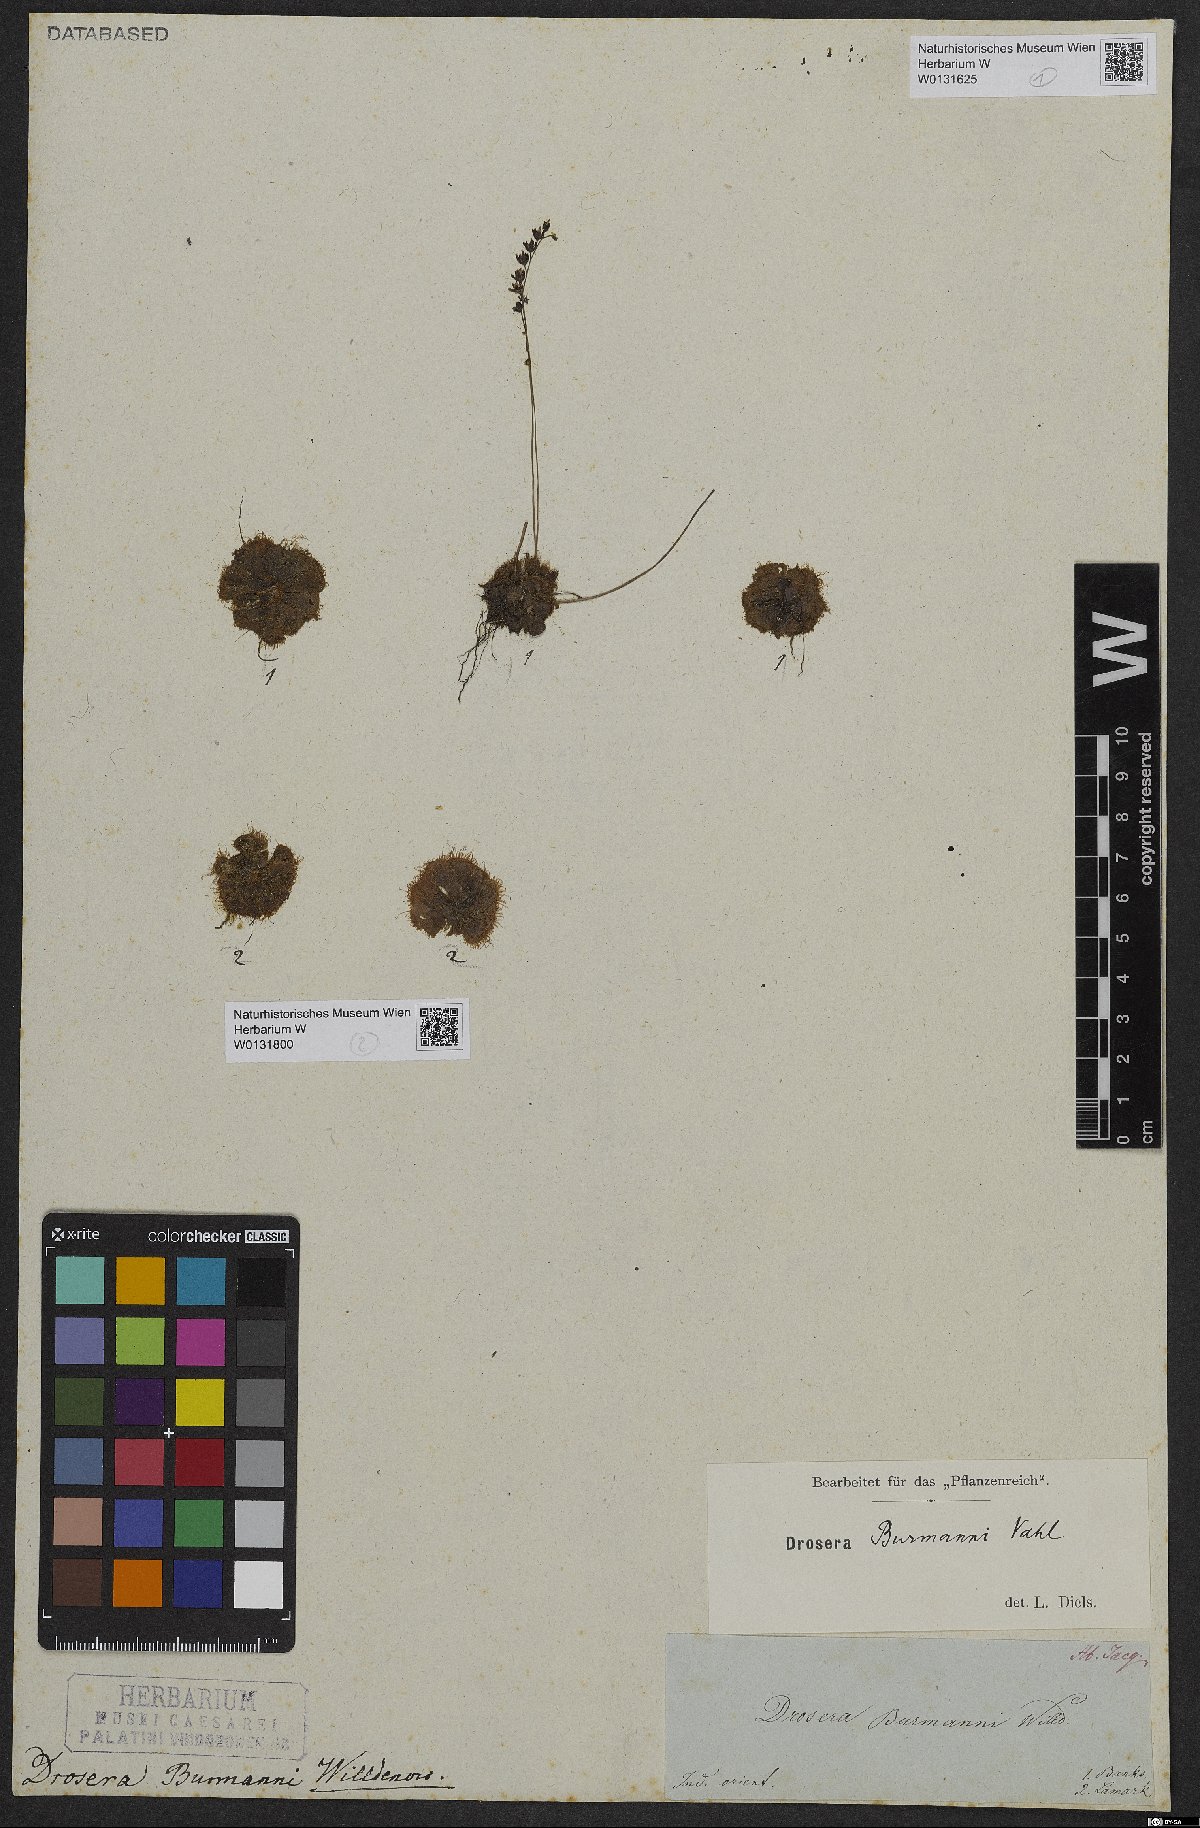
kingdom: Plantae
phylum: Tracheophyta
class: Magnoliopsida
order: Caryophyllales
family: Droseraceae
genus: Drosera
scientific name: Drosera burmannii
